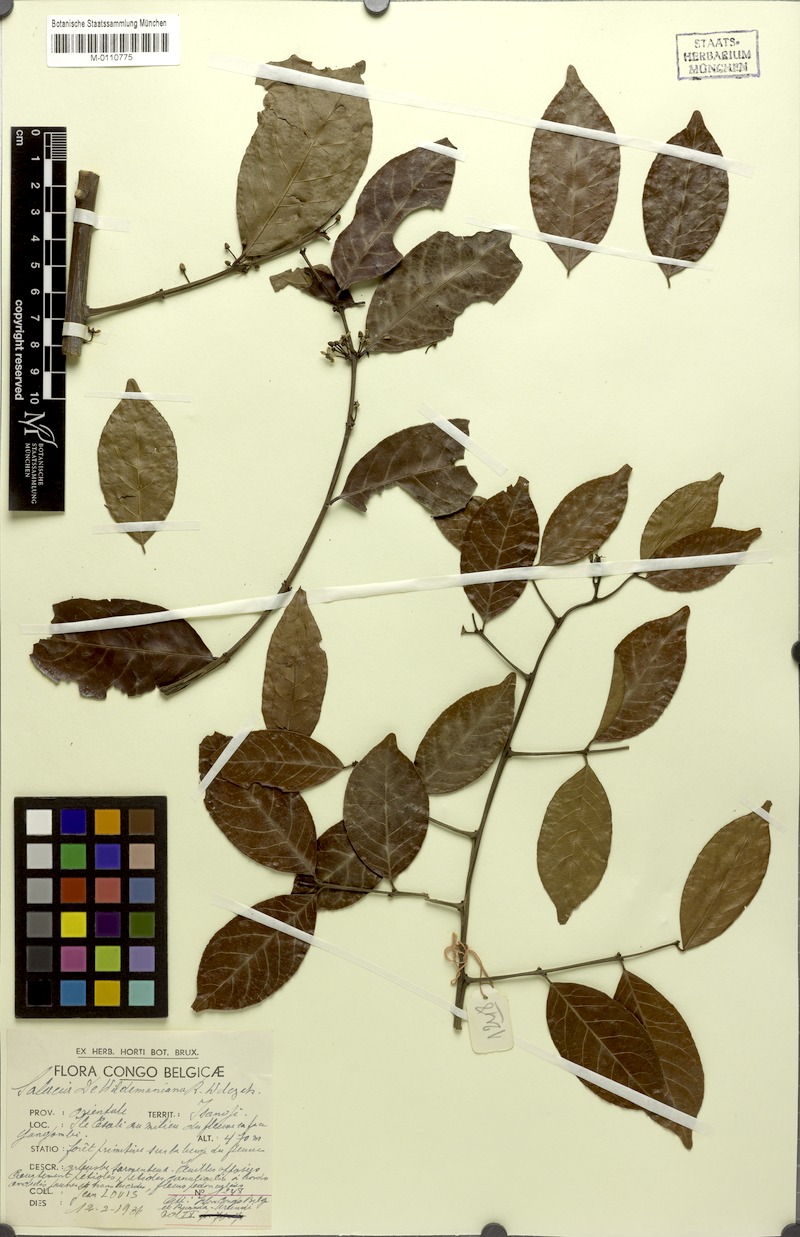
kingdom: Plantae
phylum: Tracheophyta
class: Magnoliopsida
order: Celastrales
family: Celastraceae
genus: Salacia
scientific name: Salacia erecta
